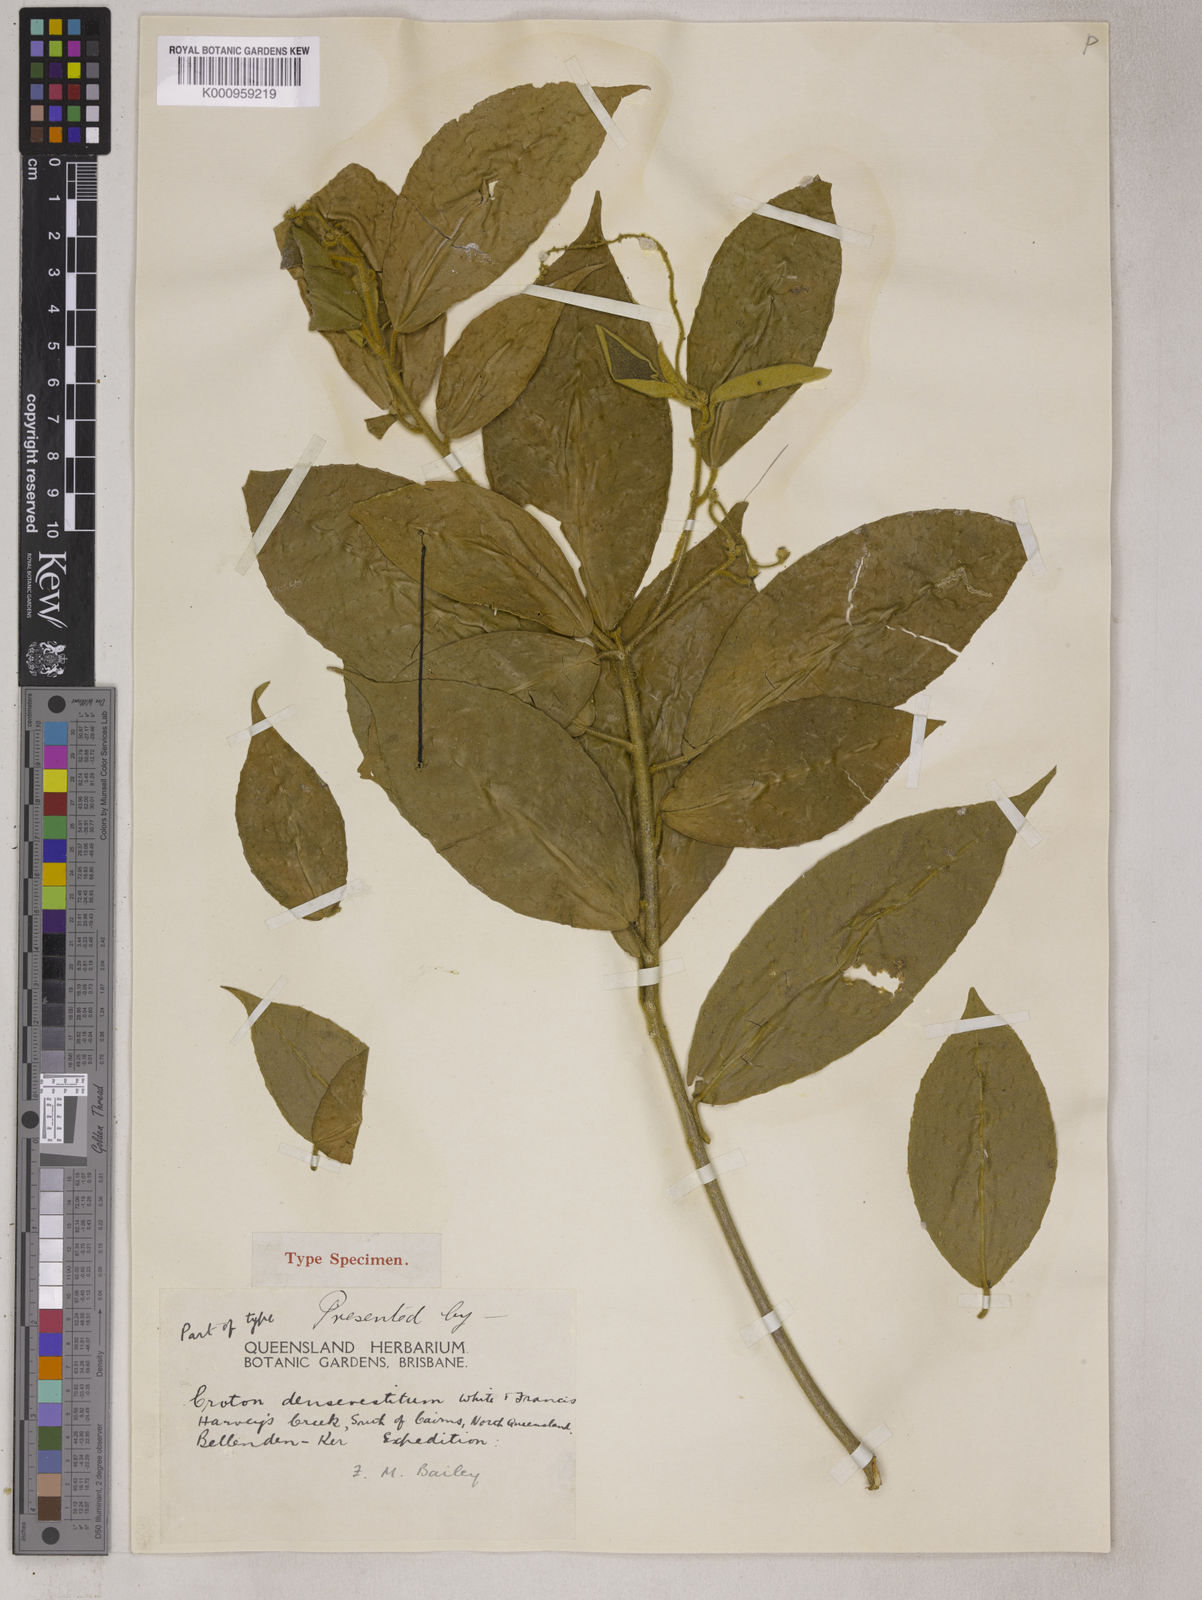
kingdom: Plantae
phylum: Tracheophyta
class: Magnoliopsida
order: Malpighiales
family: Euphorbiaceae
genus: Croton
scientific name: Croton densivestitus
